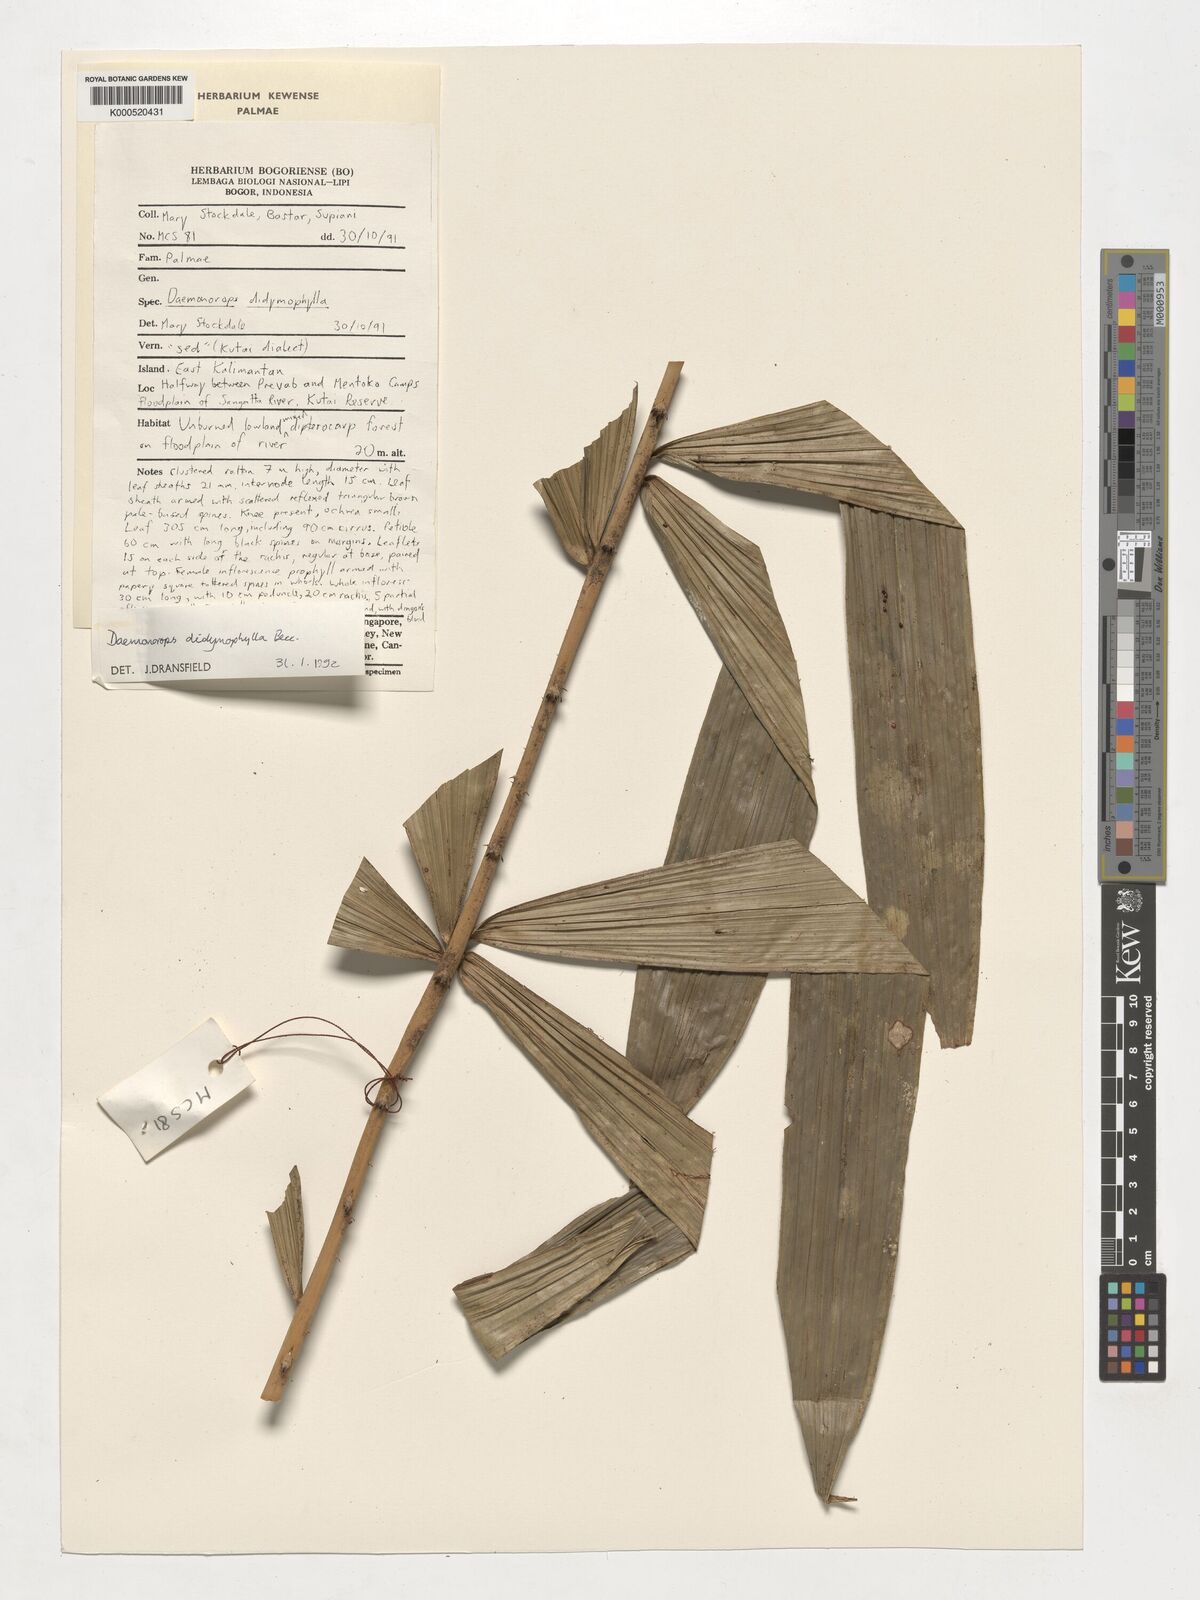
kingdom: Plantae
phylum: Tracheophyta
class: Liliopsida
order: Arecales
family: Arecaceae
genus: Calamus
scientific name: Calamus gracilipes
